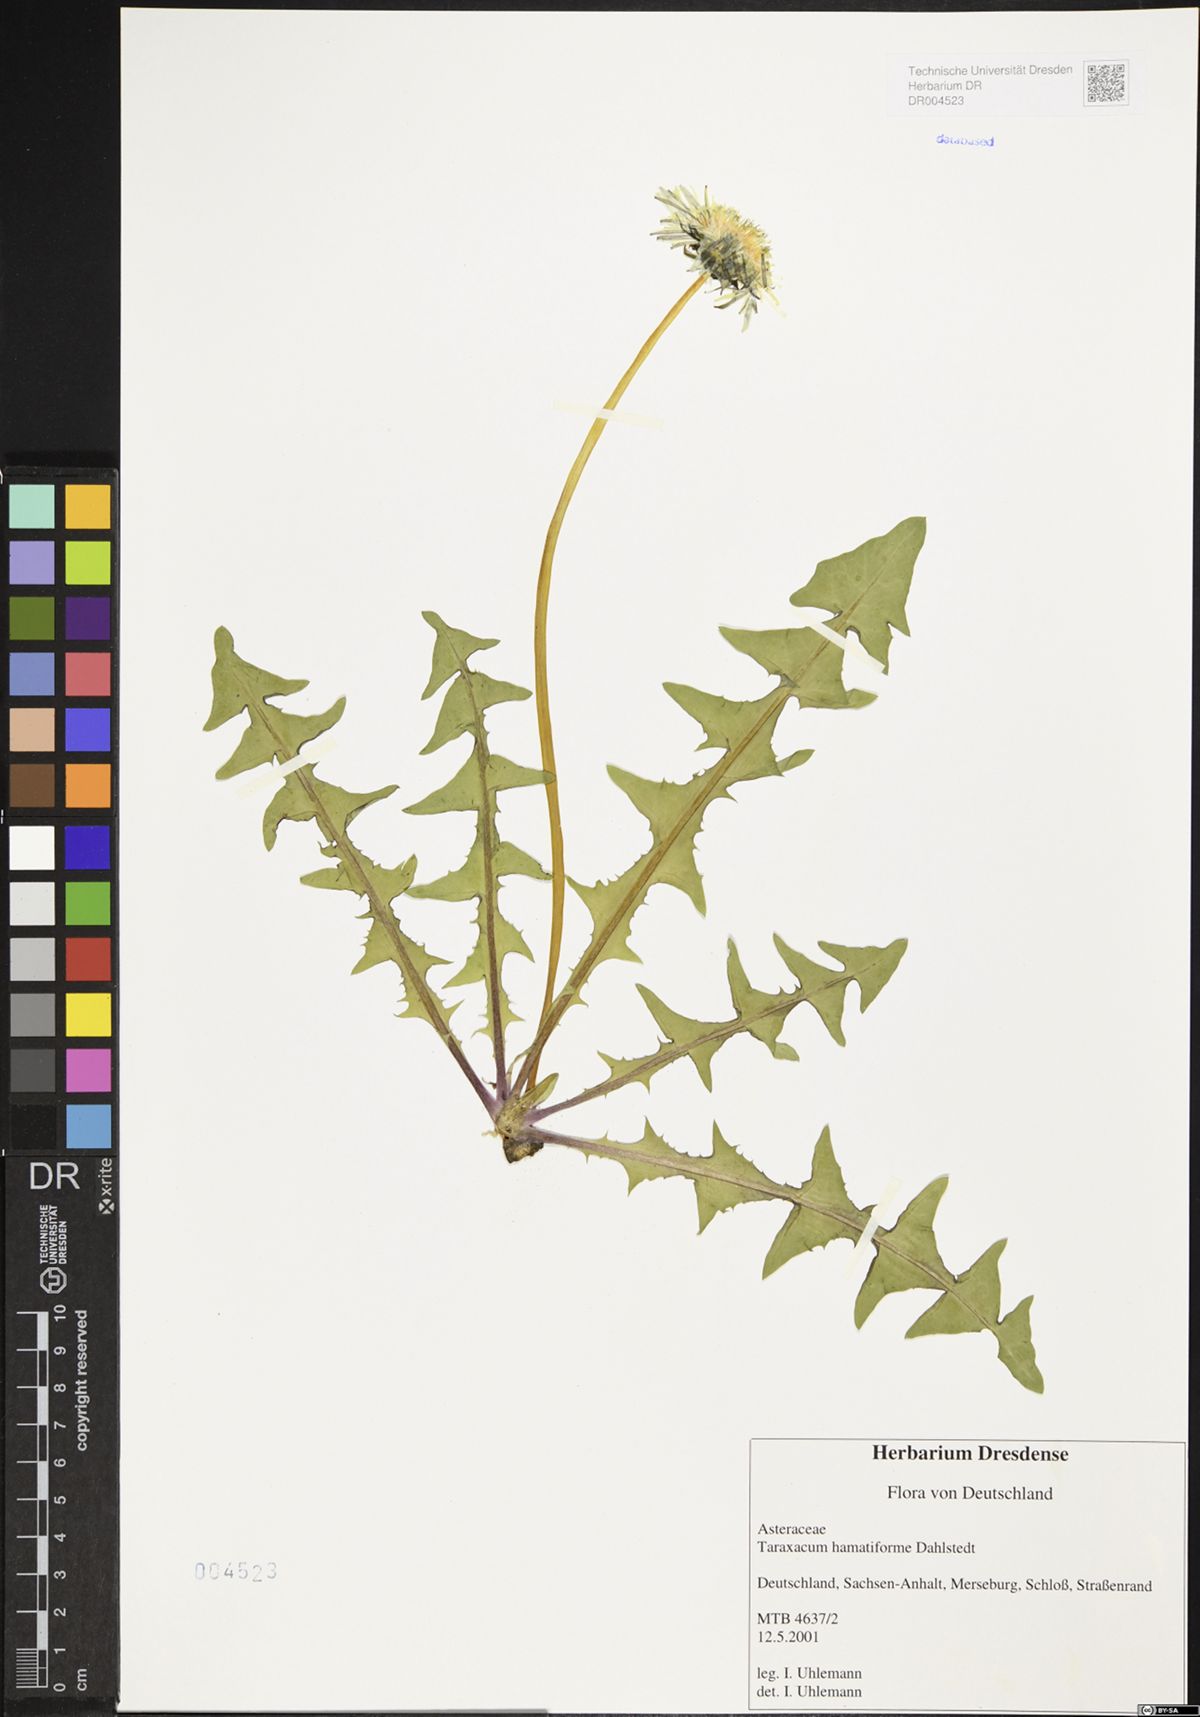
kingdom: Plantae
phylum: Tracheophyta
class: Magnoliopsida
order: Asterales
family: Asteraceae
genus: Taraxacum
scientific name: Taraxacum hamatiforme
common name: Asymmetrical hook-lobed dandelion
